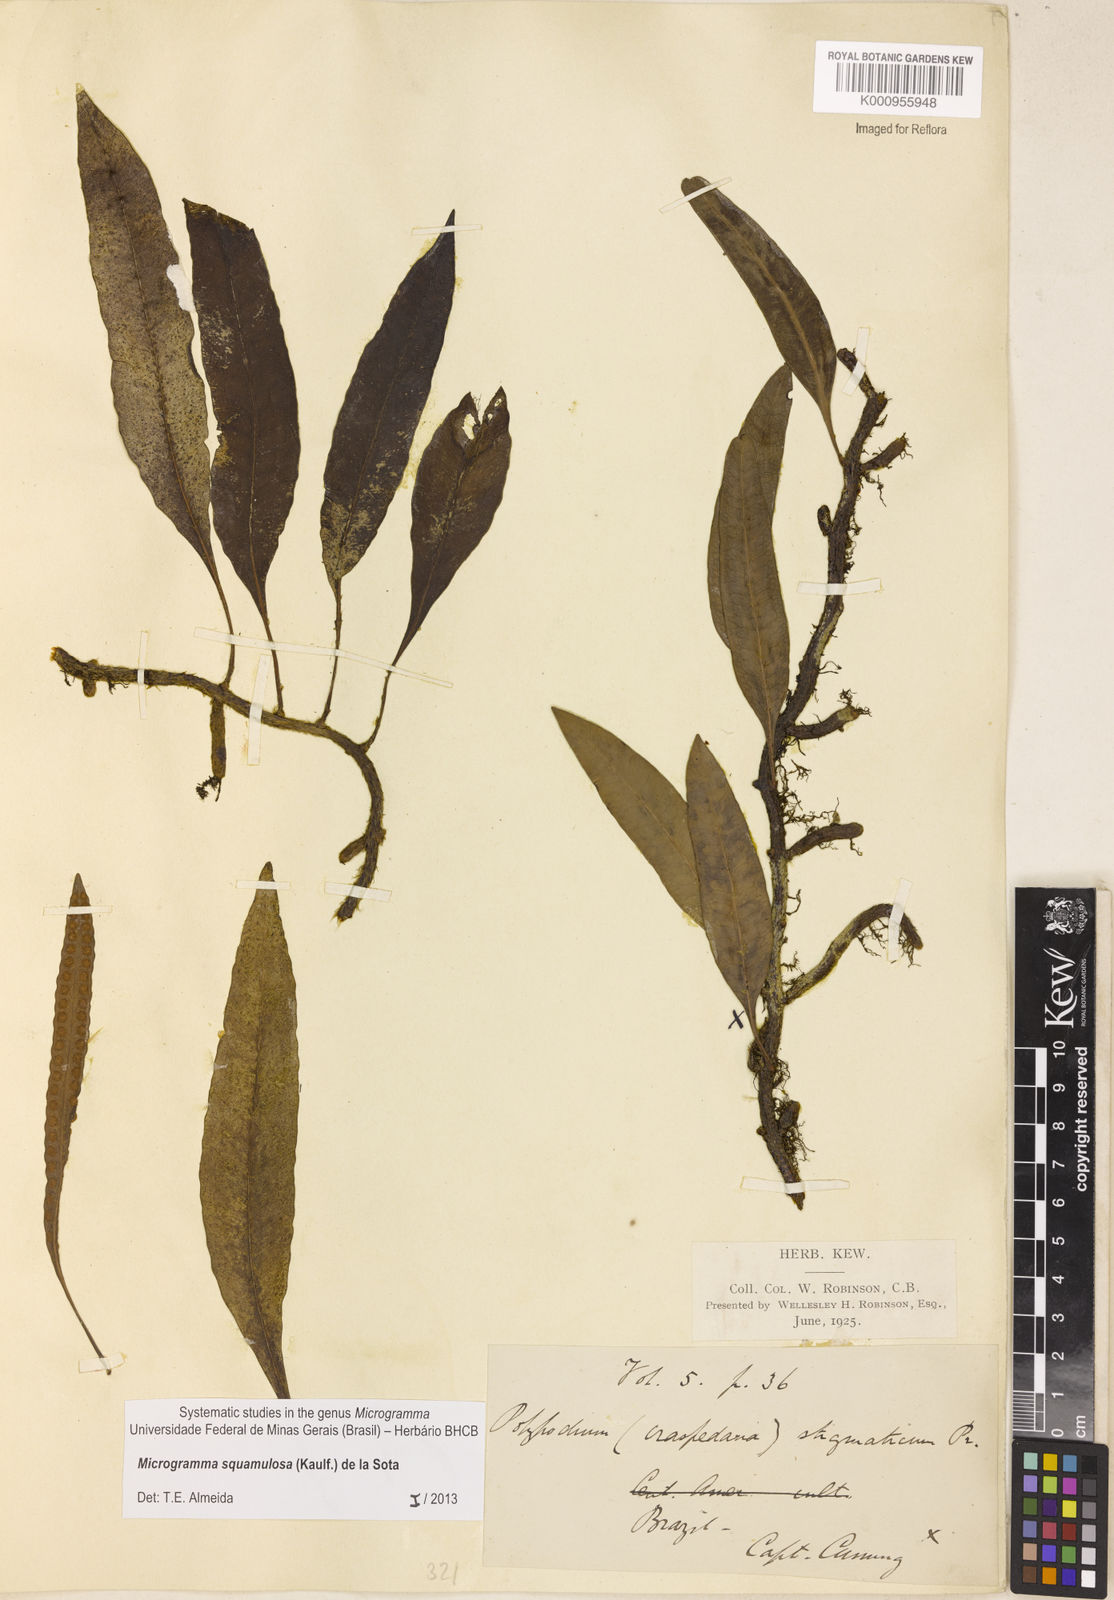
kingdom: Plantae
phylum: Tracheophyta
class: Polypodiopsida
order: Polypodiales
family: Polypodiaceae
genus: Microgramma
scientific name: Microgramma squamulosa
